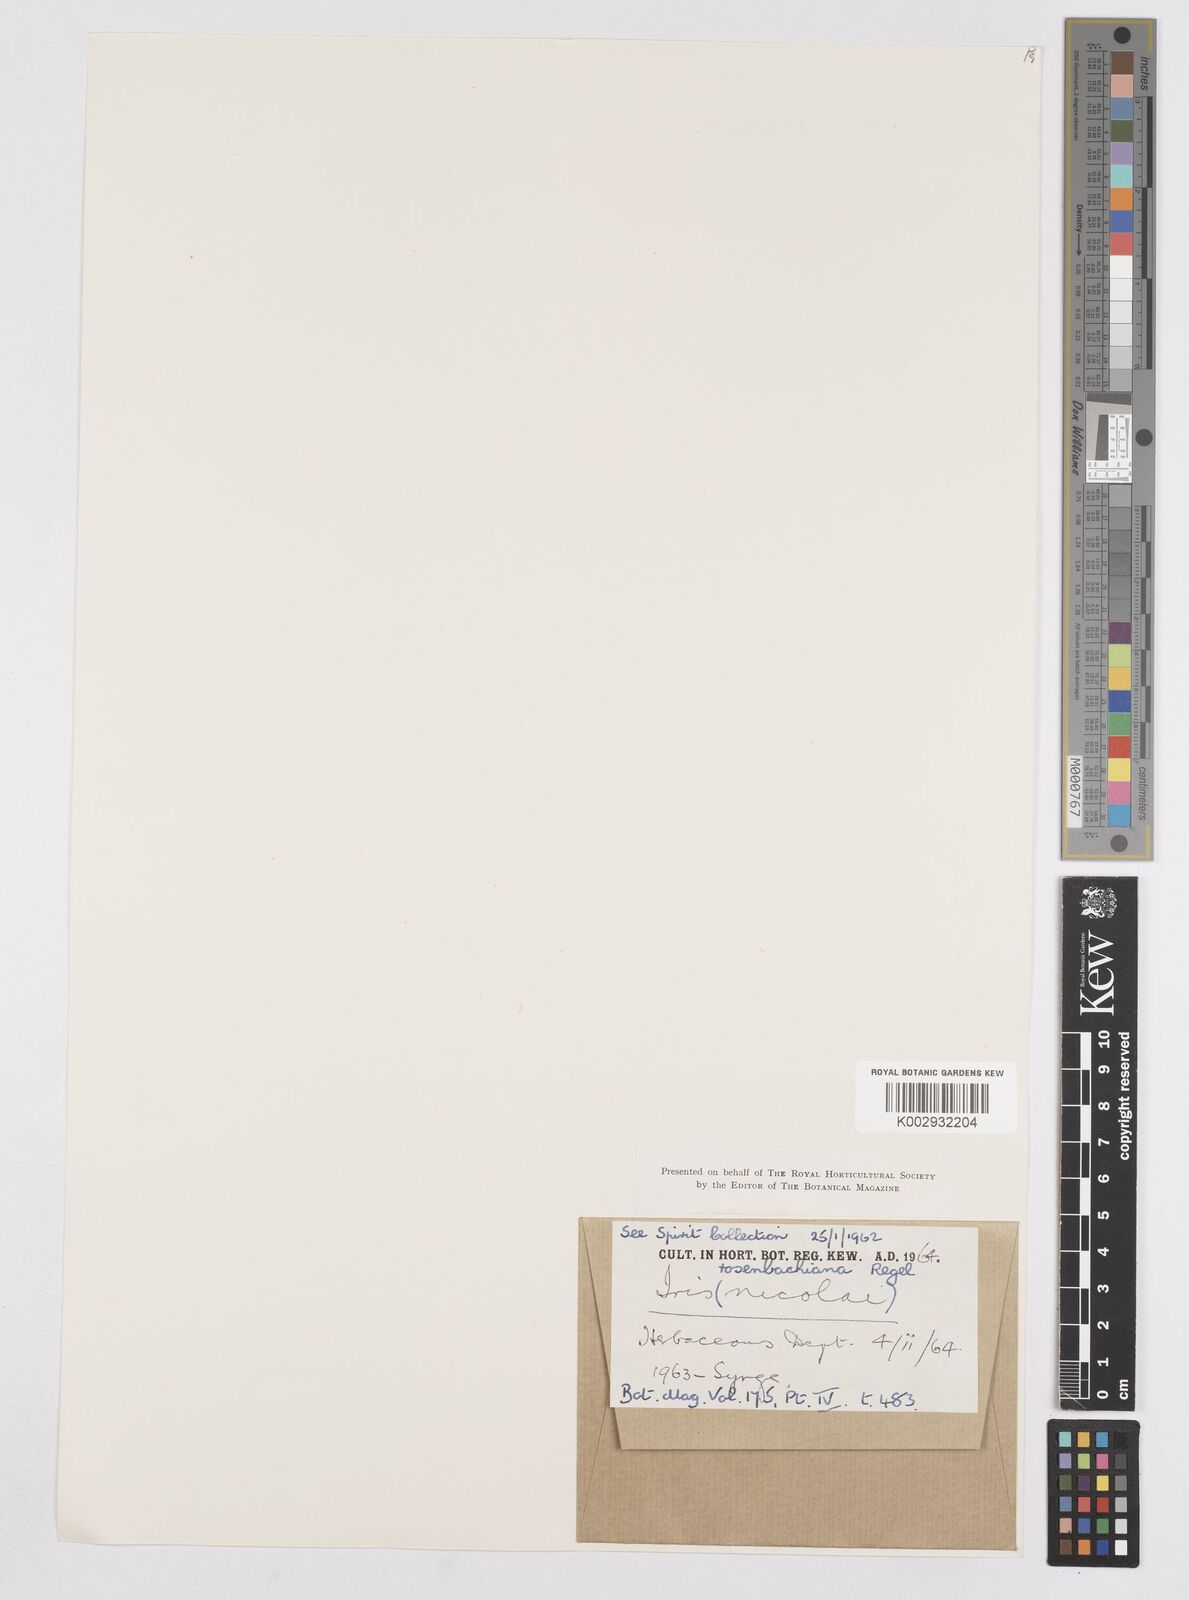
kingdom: Plantae
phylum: Tracheophyta
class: Liliopsida
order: Asparagales
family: Iridaceae
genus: Iris
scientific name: Iris nicolai
